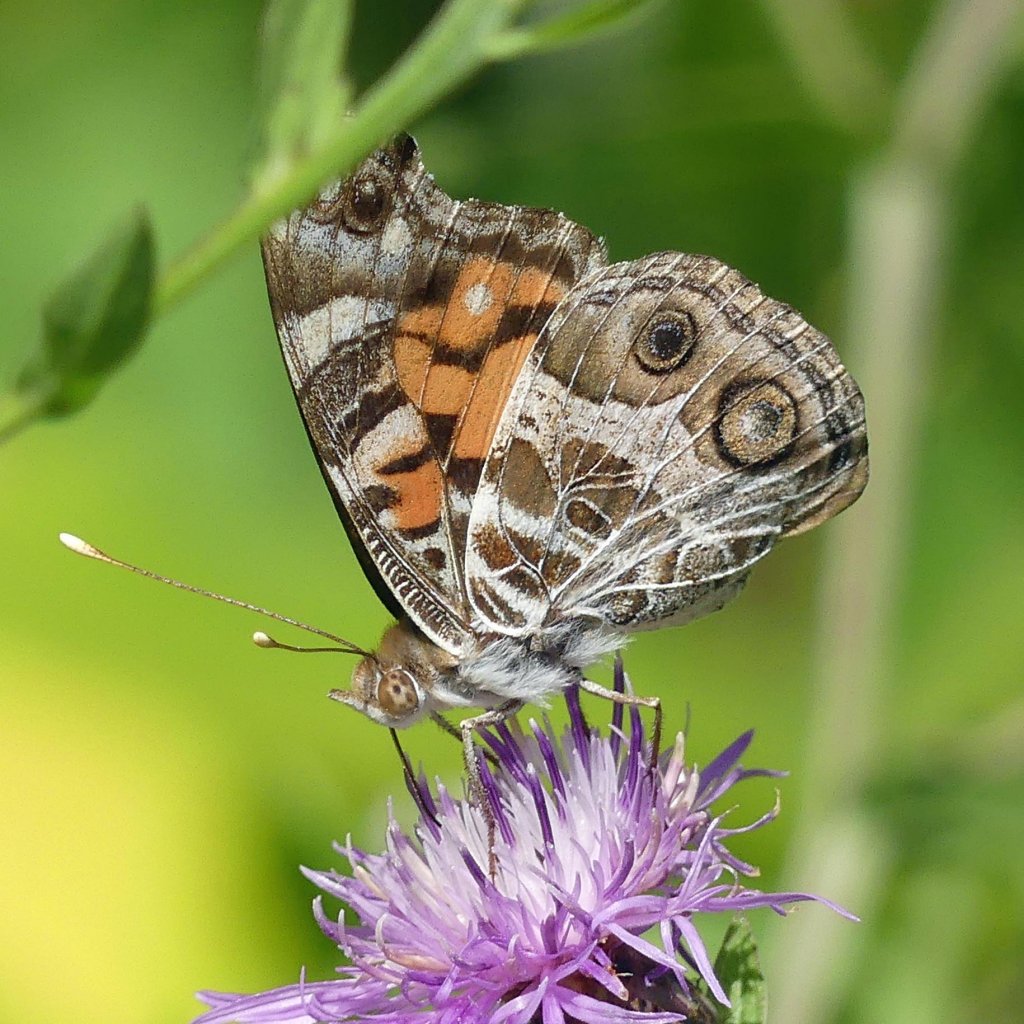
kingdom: Animalia
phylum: Arthropoda
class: Insecta
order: Lepidoptera
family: Nymphalidae
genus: Vanessa
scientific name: Vanessa virginiensis
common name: American Lady
